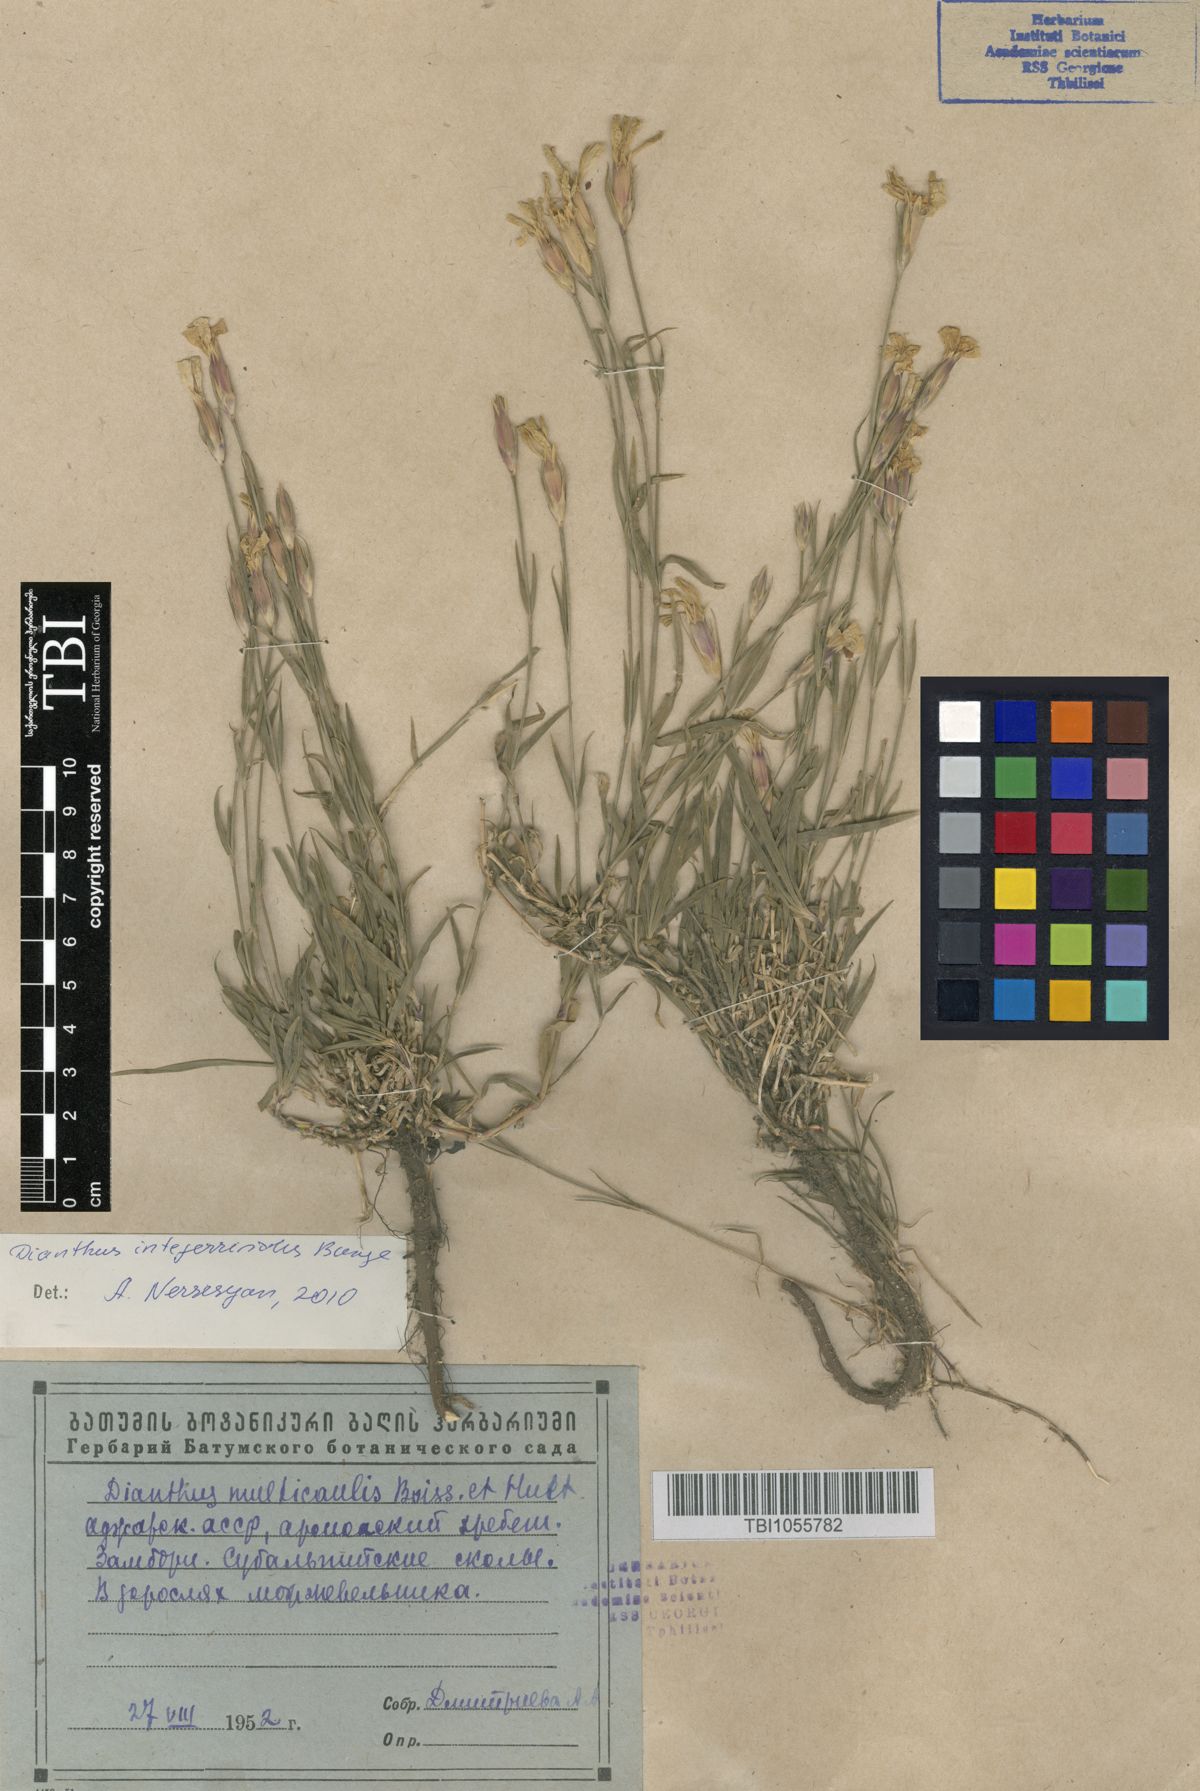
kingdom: Plantae
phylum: Tracheophyta
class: Magnoliopsida
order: Caryophyllales
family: Caryophyllaceae
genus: Dianthus
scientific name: Dianthus cretaceus
